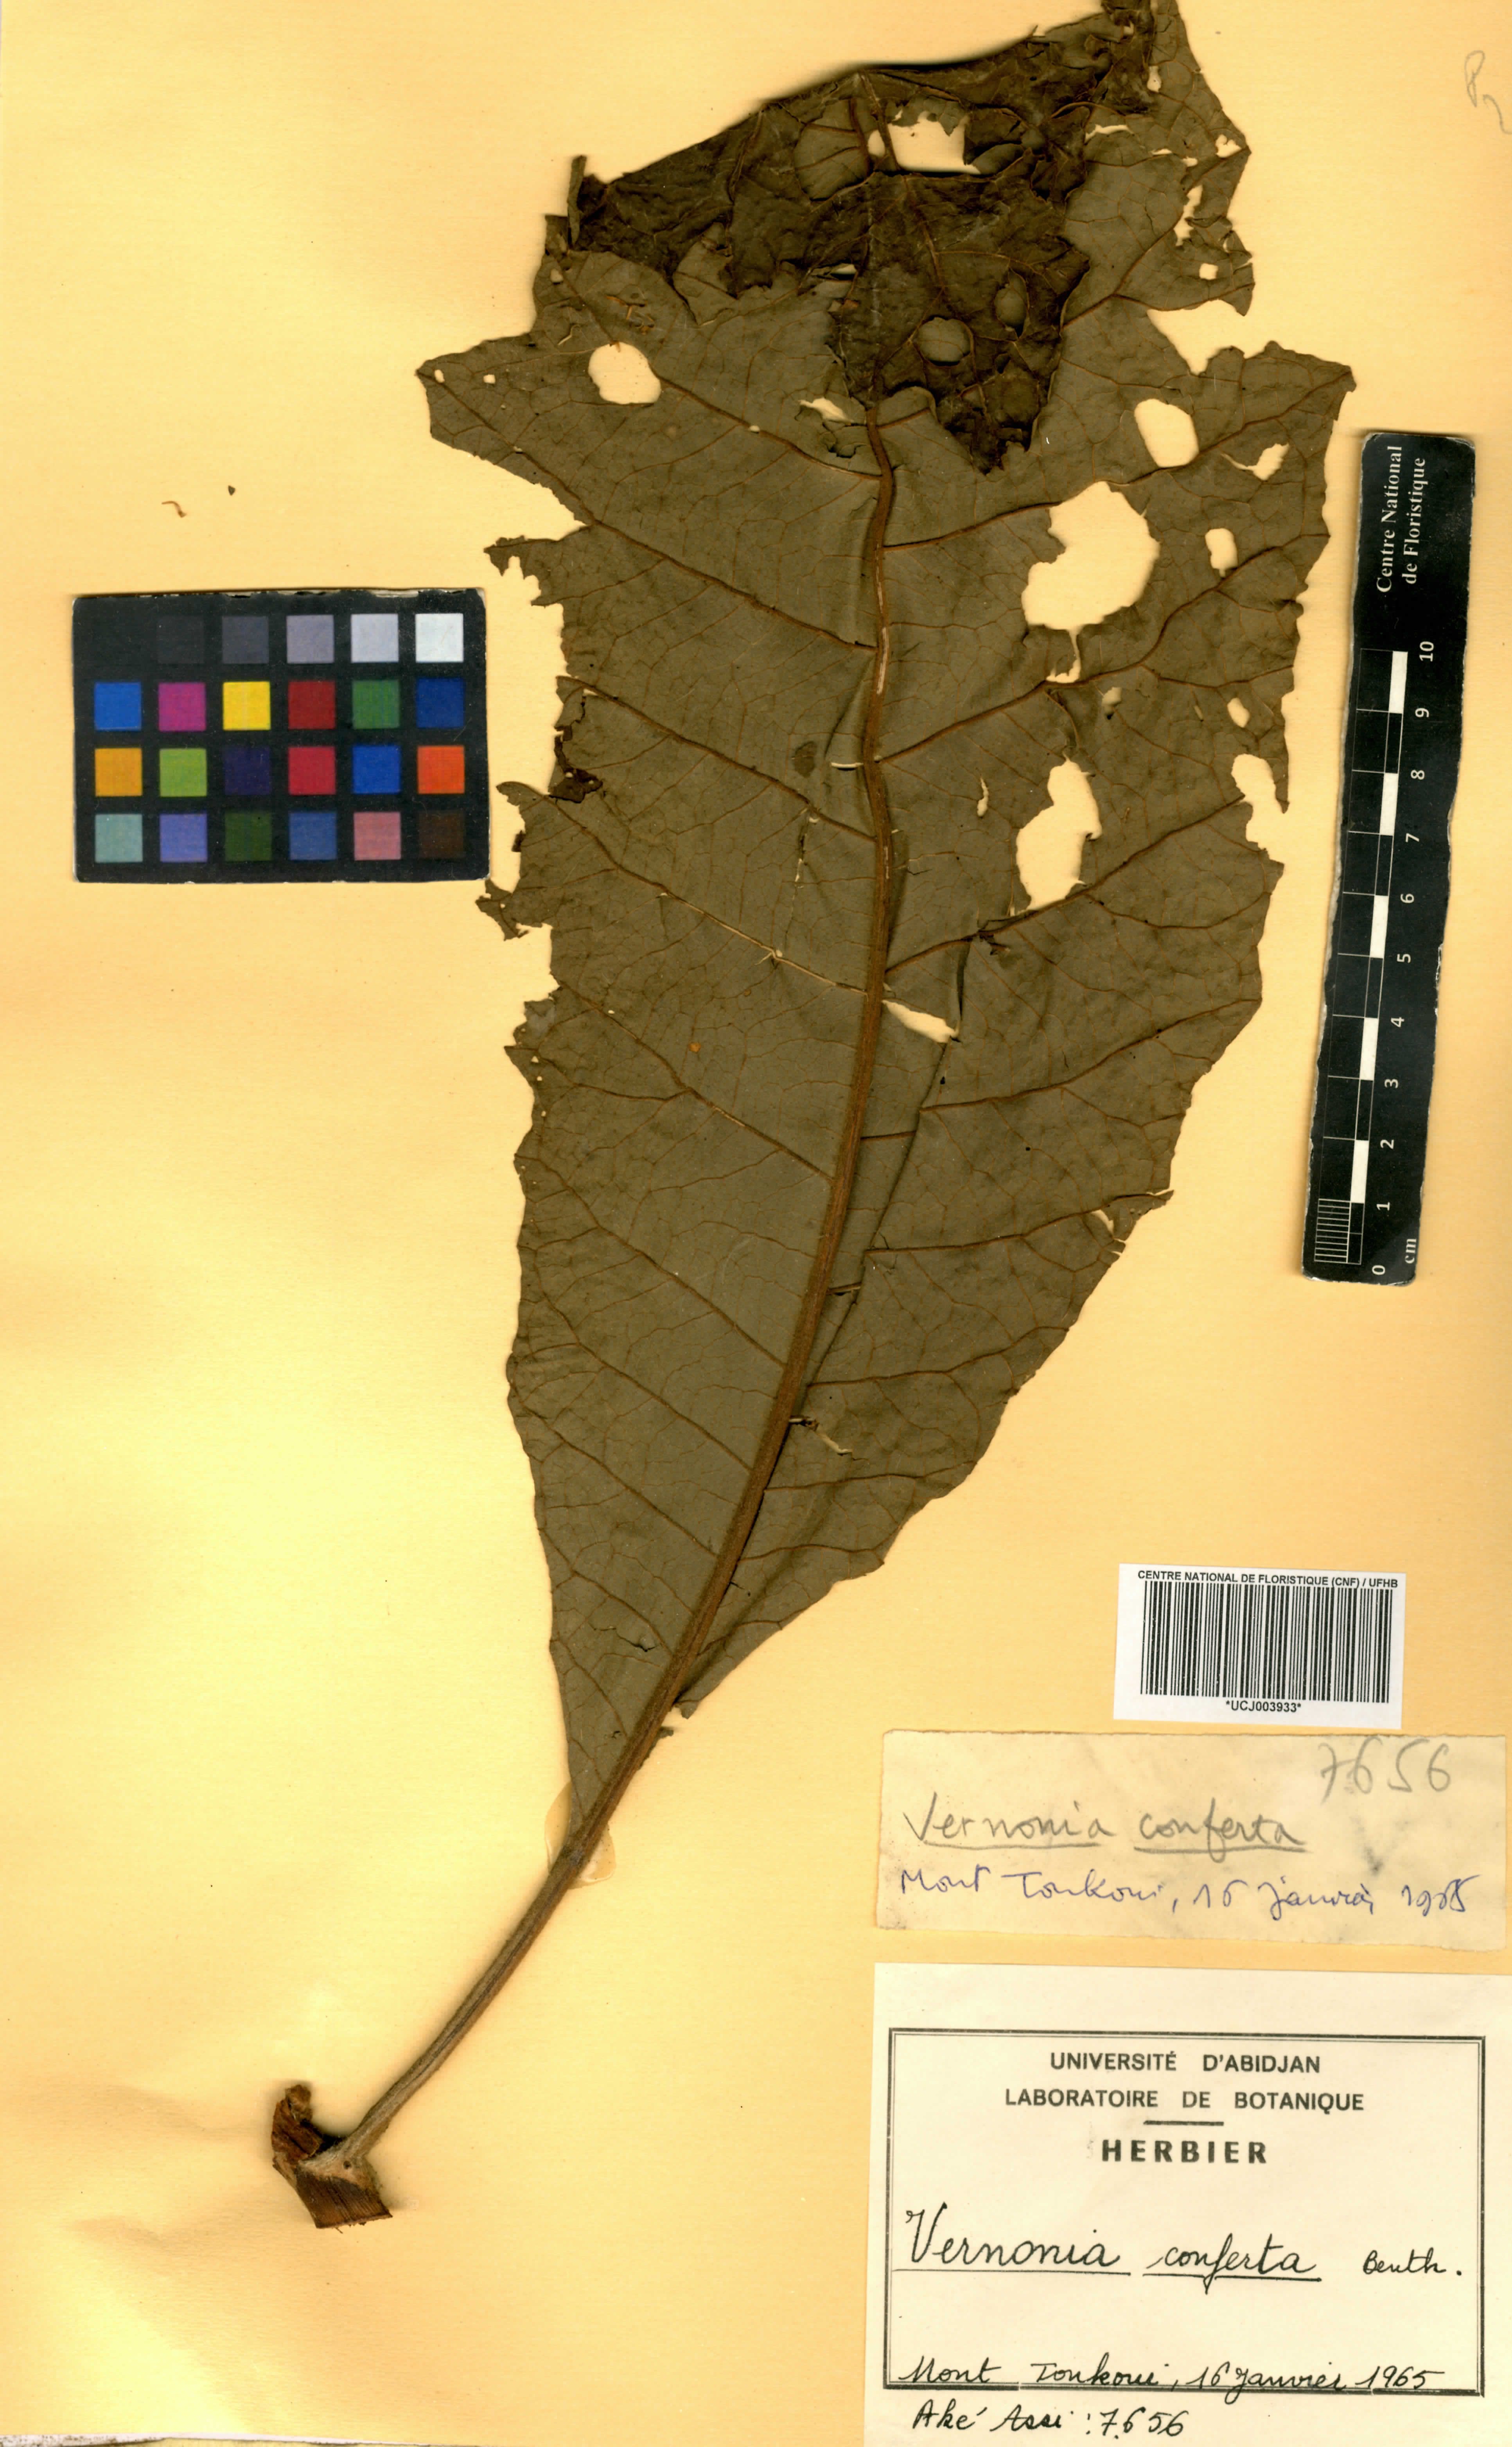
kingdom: Plantae
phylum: Tracheophyta
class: Magnoliopsida
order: Asterales
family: Asteraceae
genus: Monosis
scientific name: Monosis conferta
